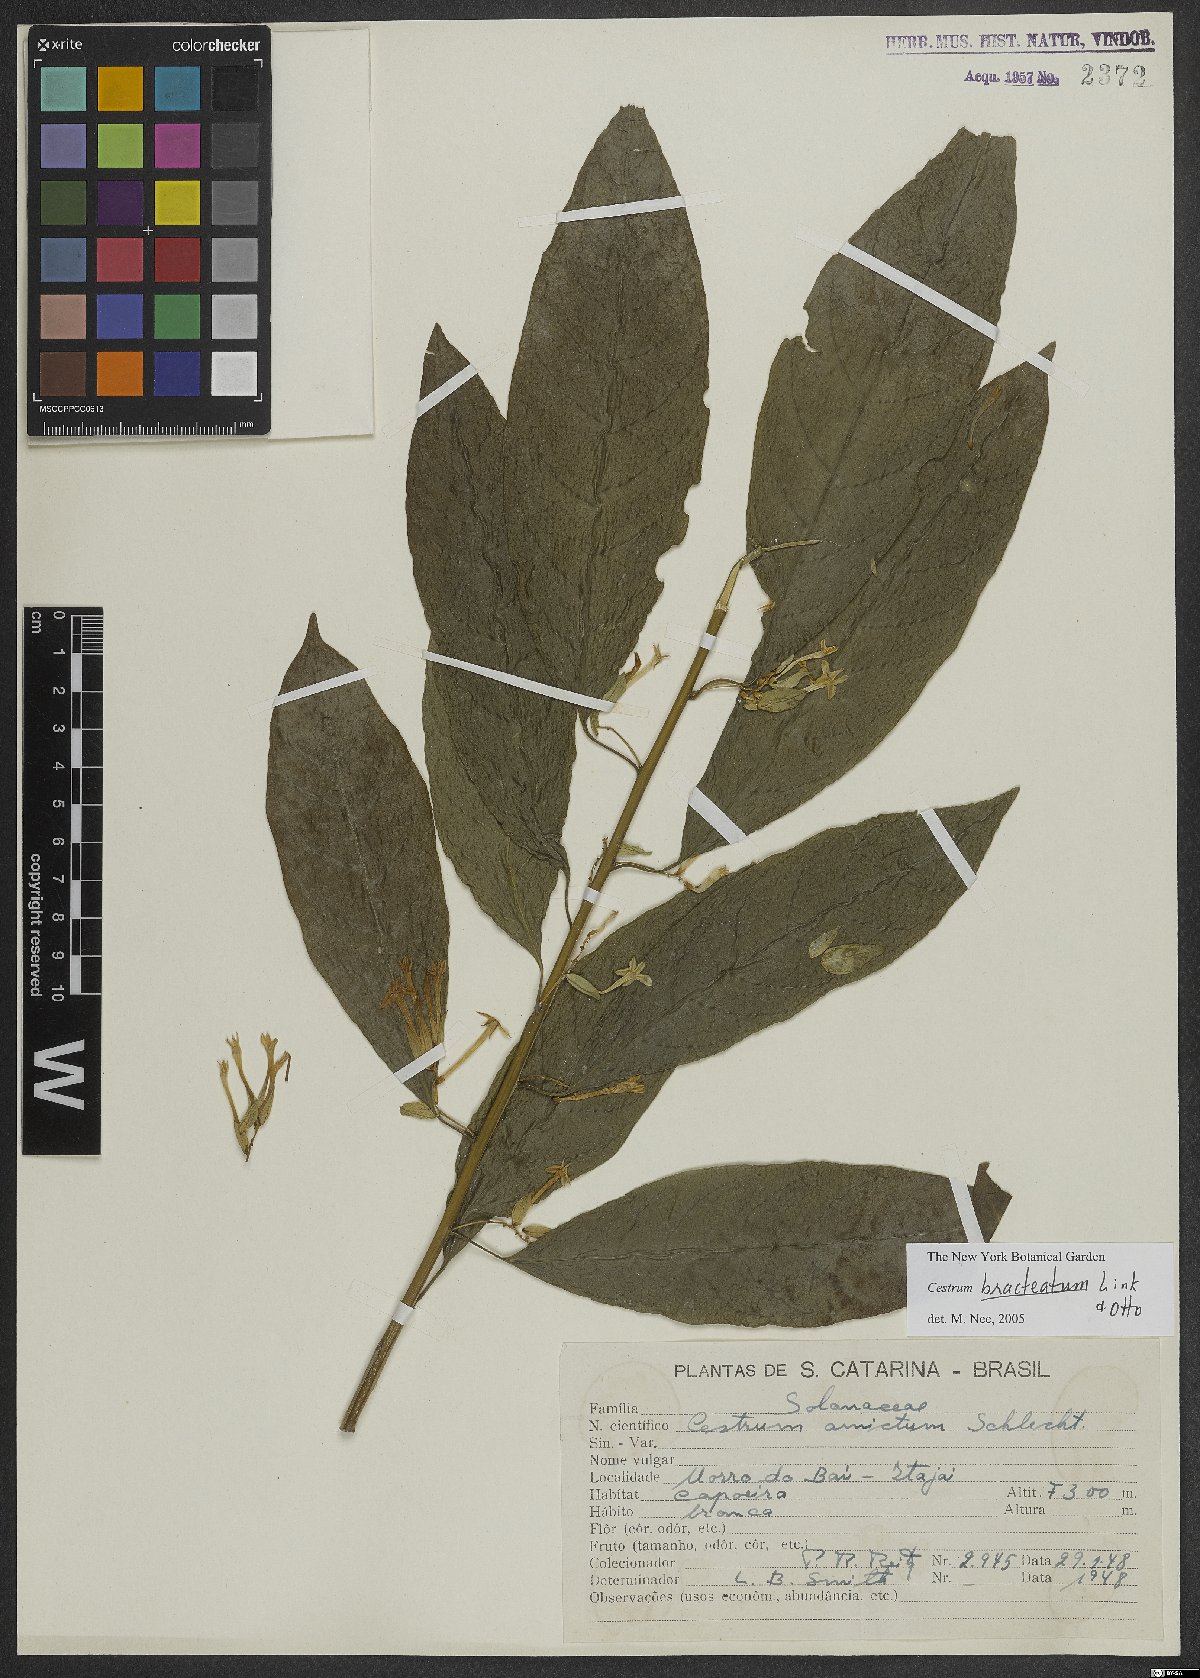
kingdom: Plantae
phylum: Tracheophyta
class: Magnoliopsida
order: Solanales
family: Solanaceae
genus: Cestrum
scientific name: Cestrum bracteatum
